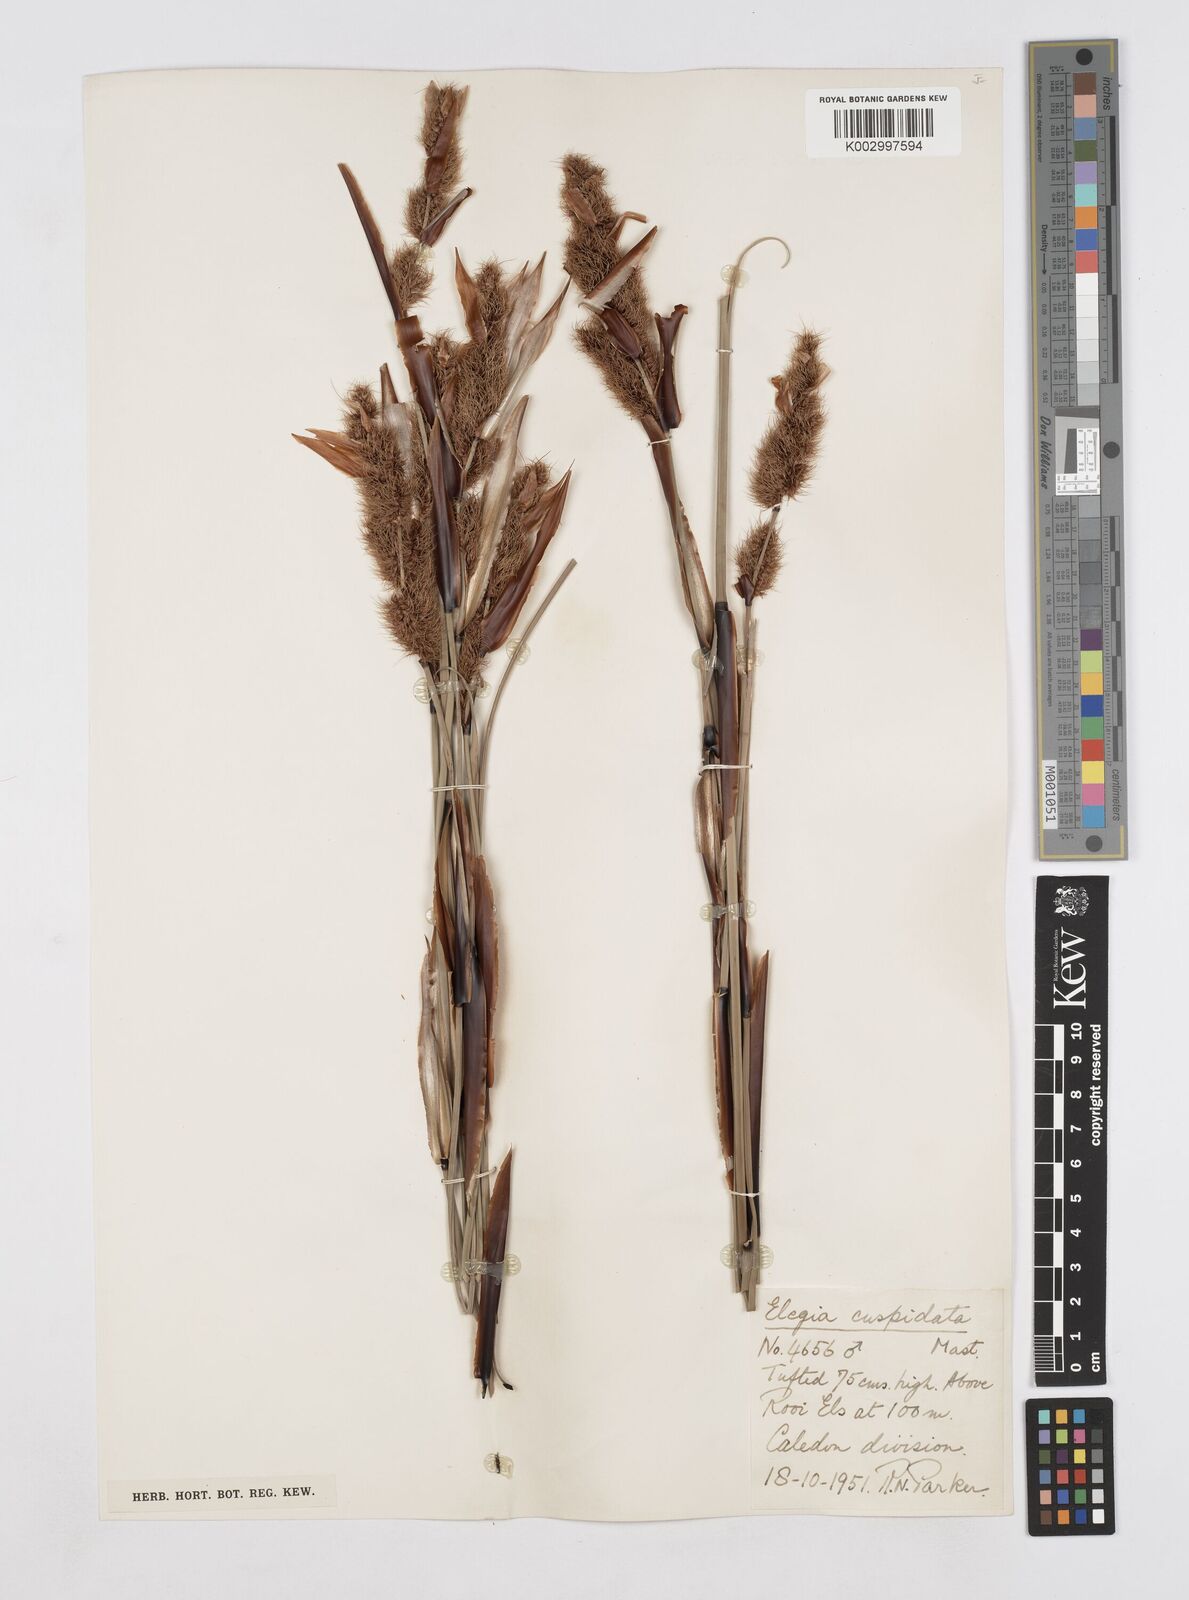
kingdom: Plantae
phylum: Tracheophyta
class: Liliopsida
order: Poales
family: Restionaceae
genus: Elegia
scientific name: Elegia cuspidata
